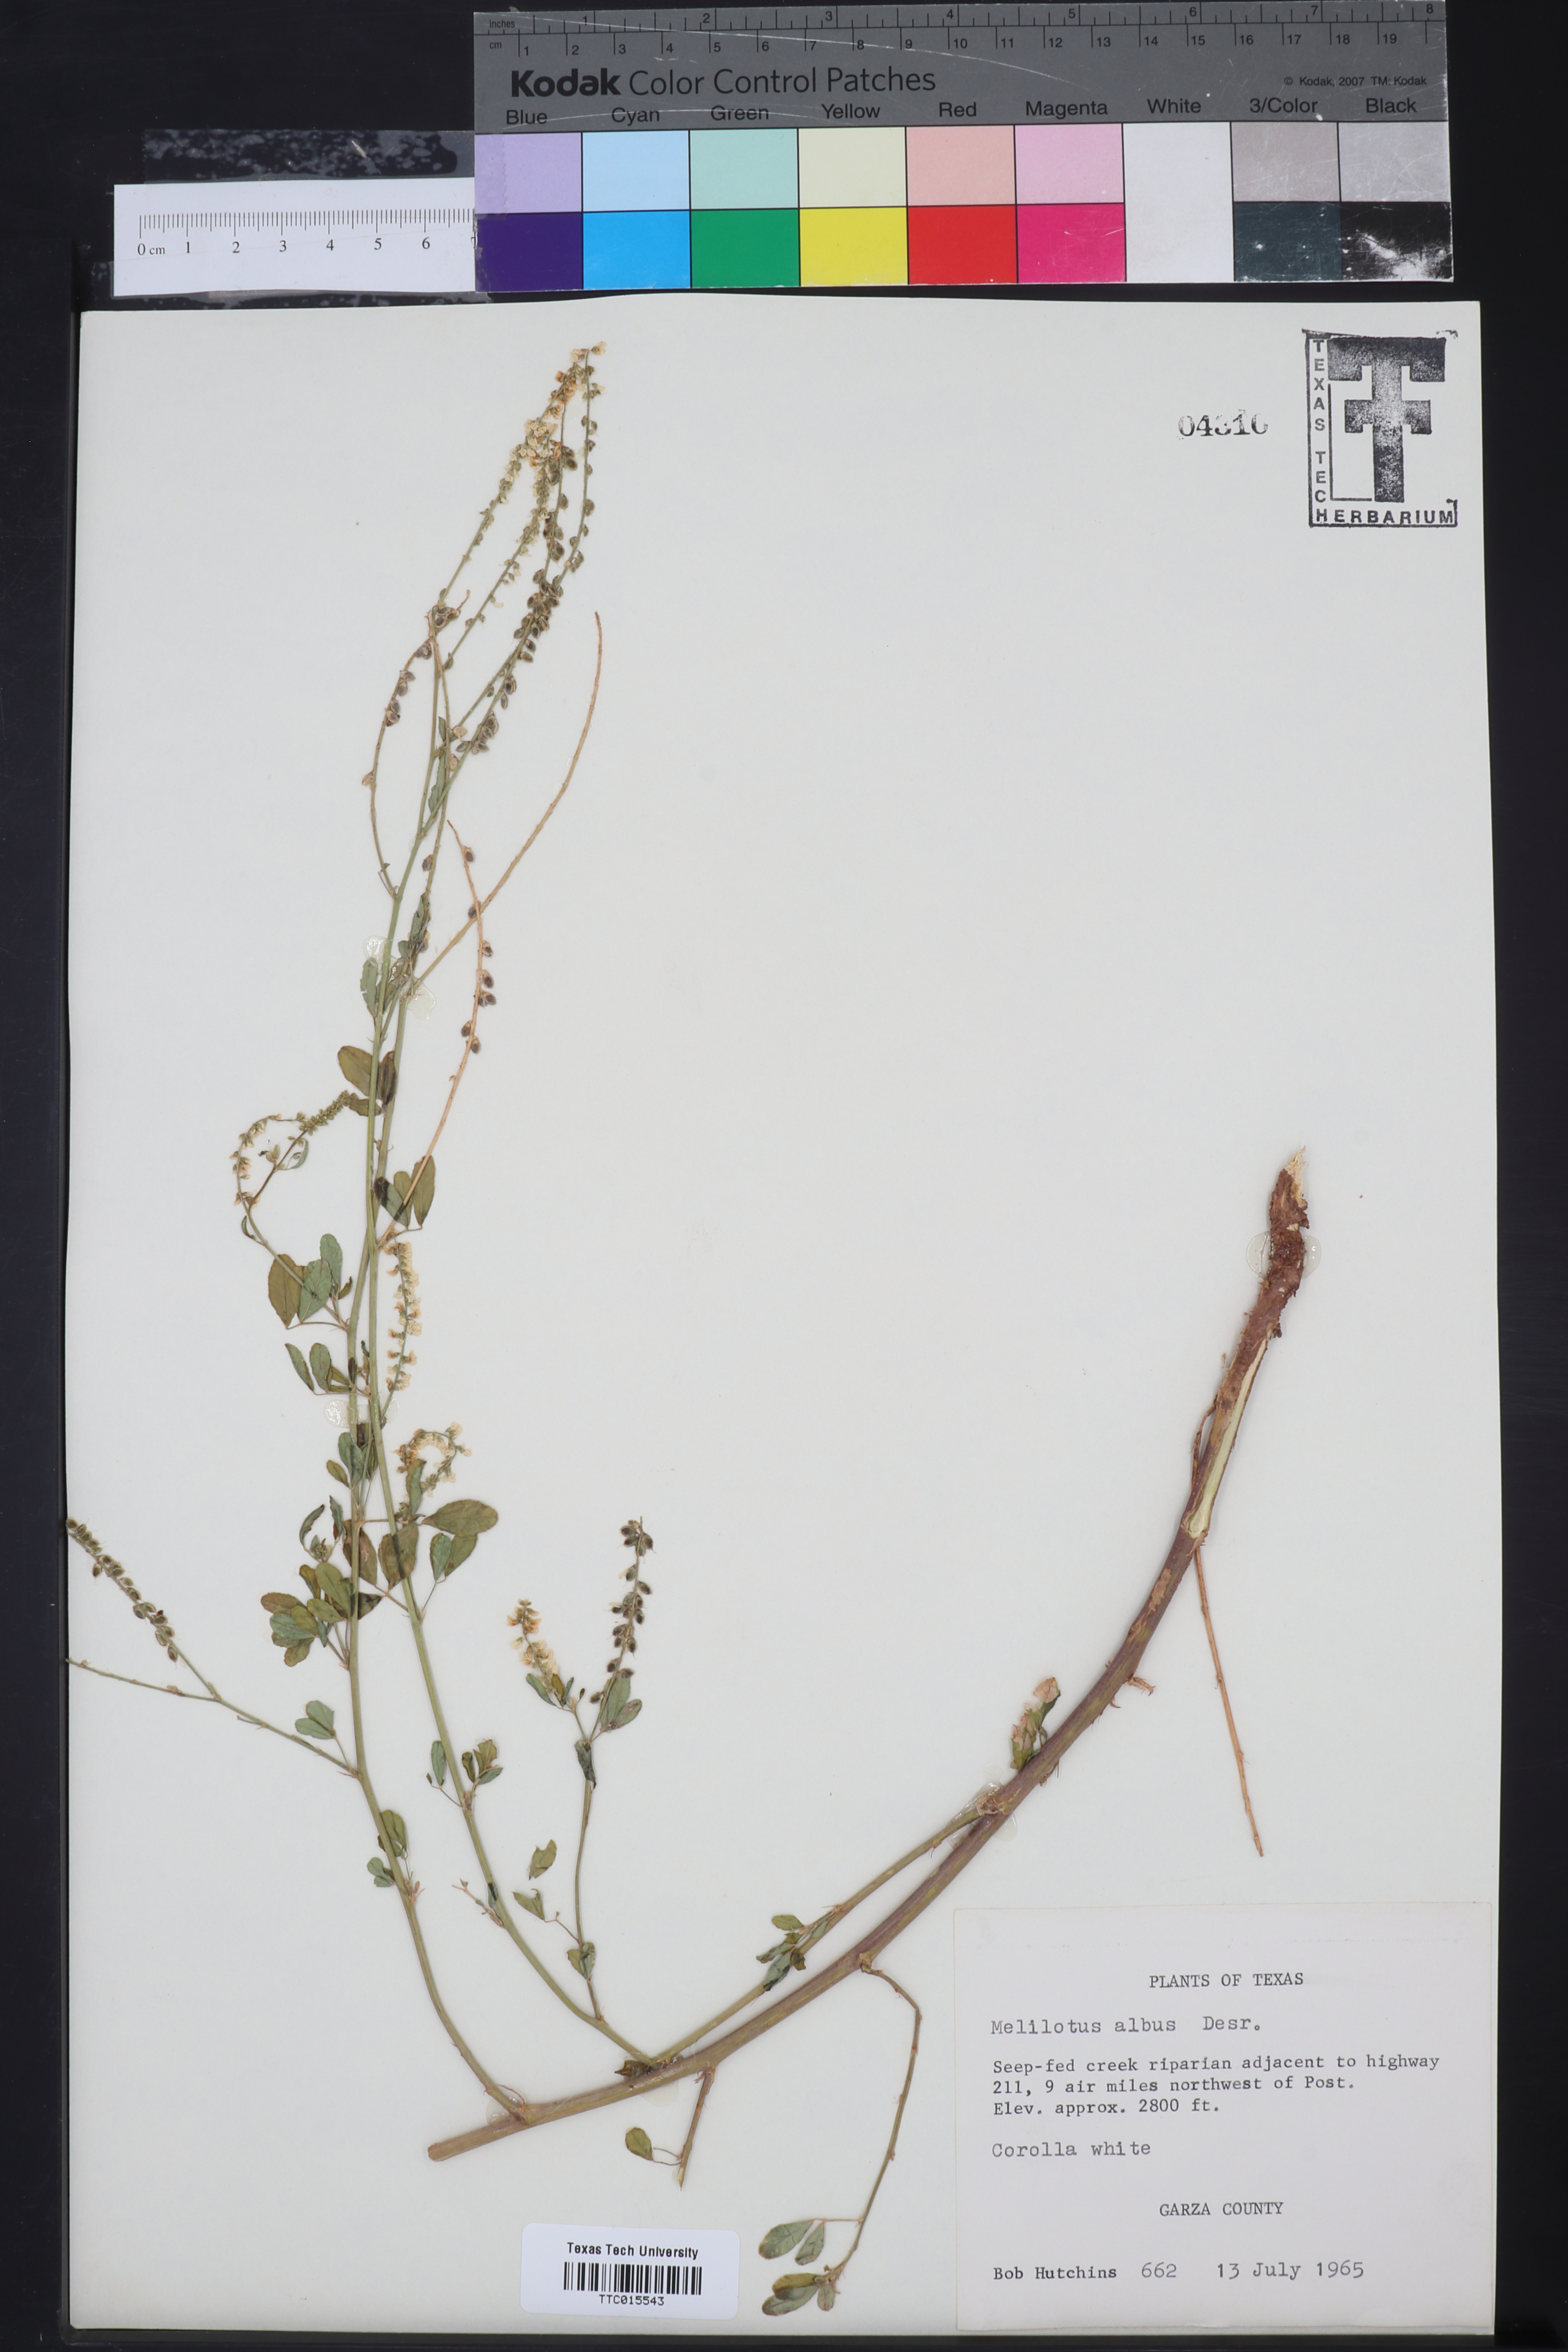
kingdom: Plantae
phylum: Tracheophyta
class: Magnoliopsida
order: Fabales
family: Fabaceae
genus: Melilotus
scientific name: Melilotus albus
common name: White melilot
